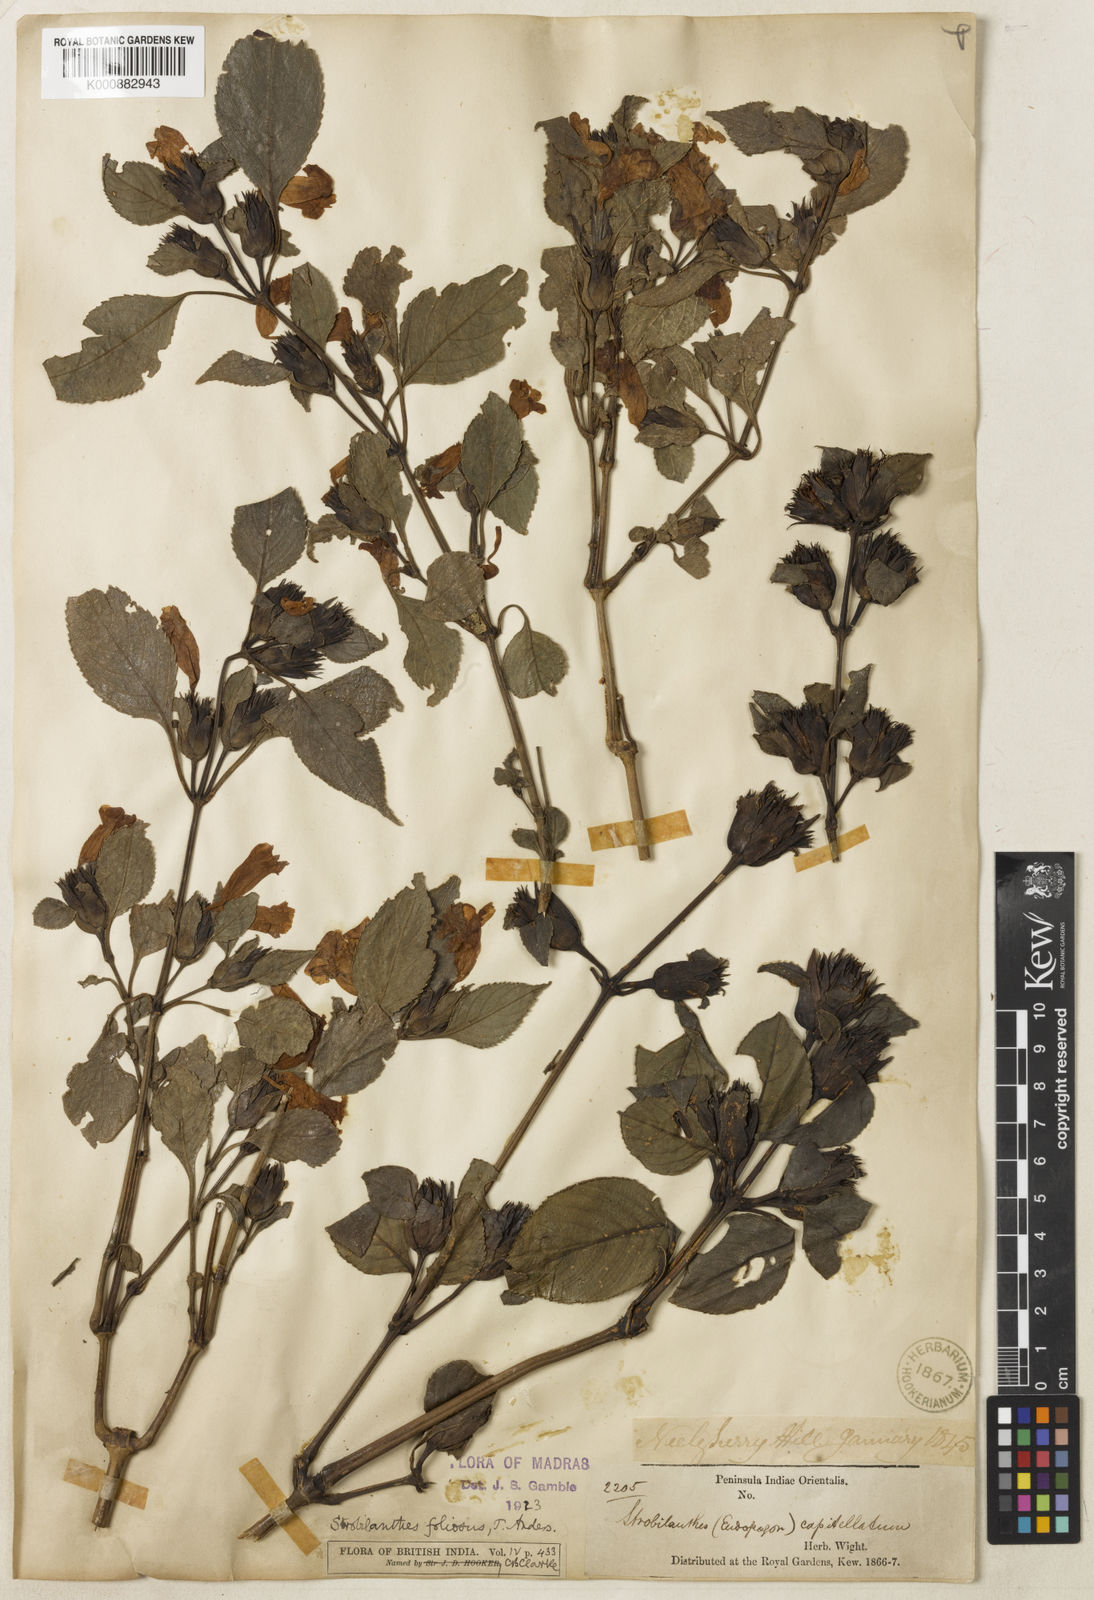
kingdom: Plantae
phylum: Tracheophyta
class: Magnoliopsida
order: Lamiales
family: Acanthaceae
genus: Strobilanthes
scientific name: Strobilanthes foliosa
